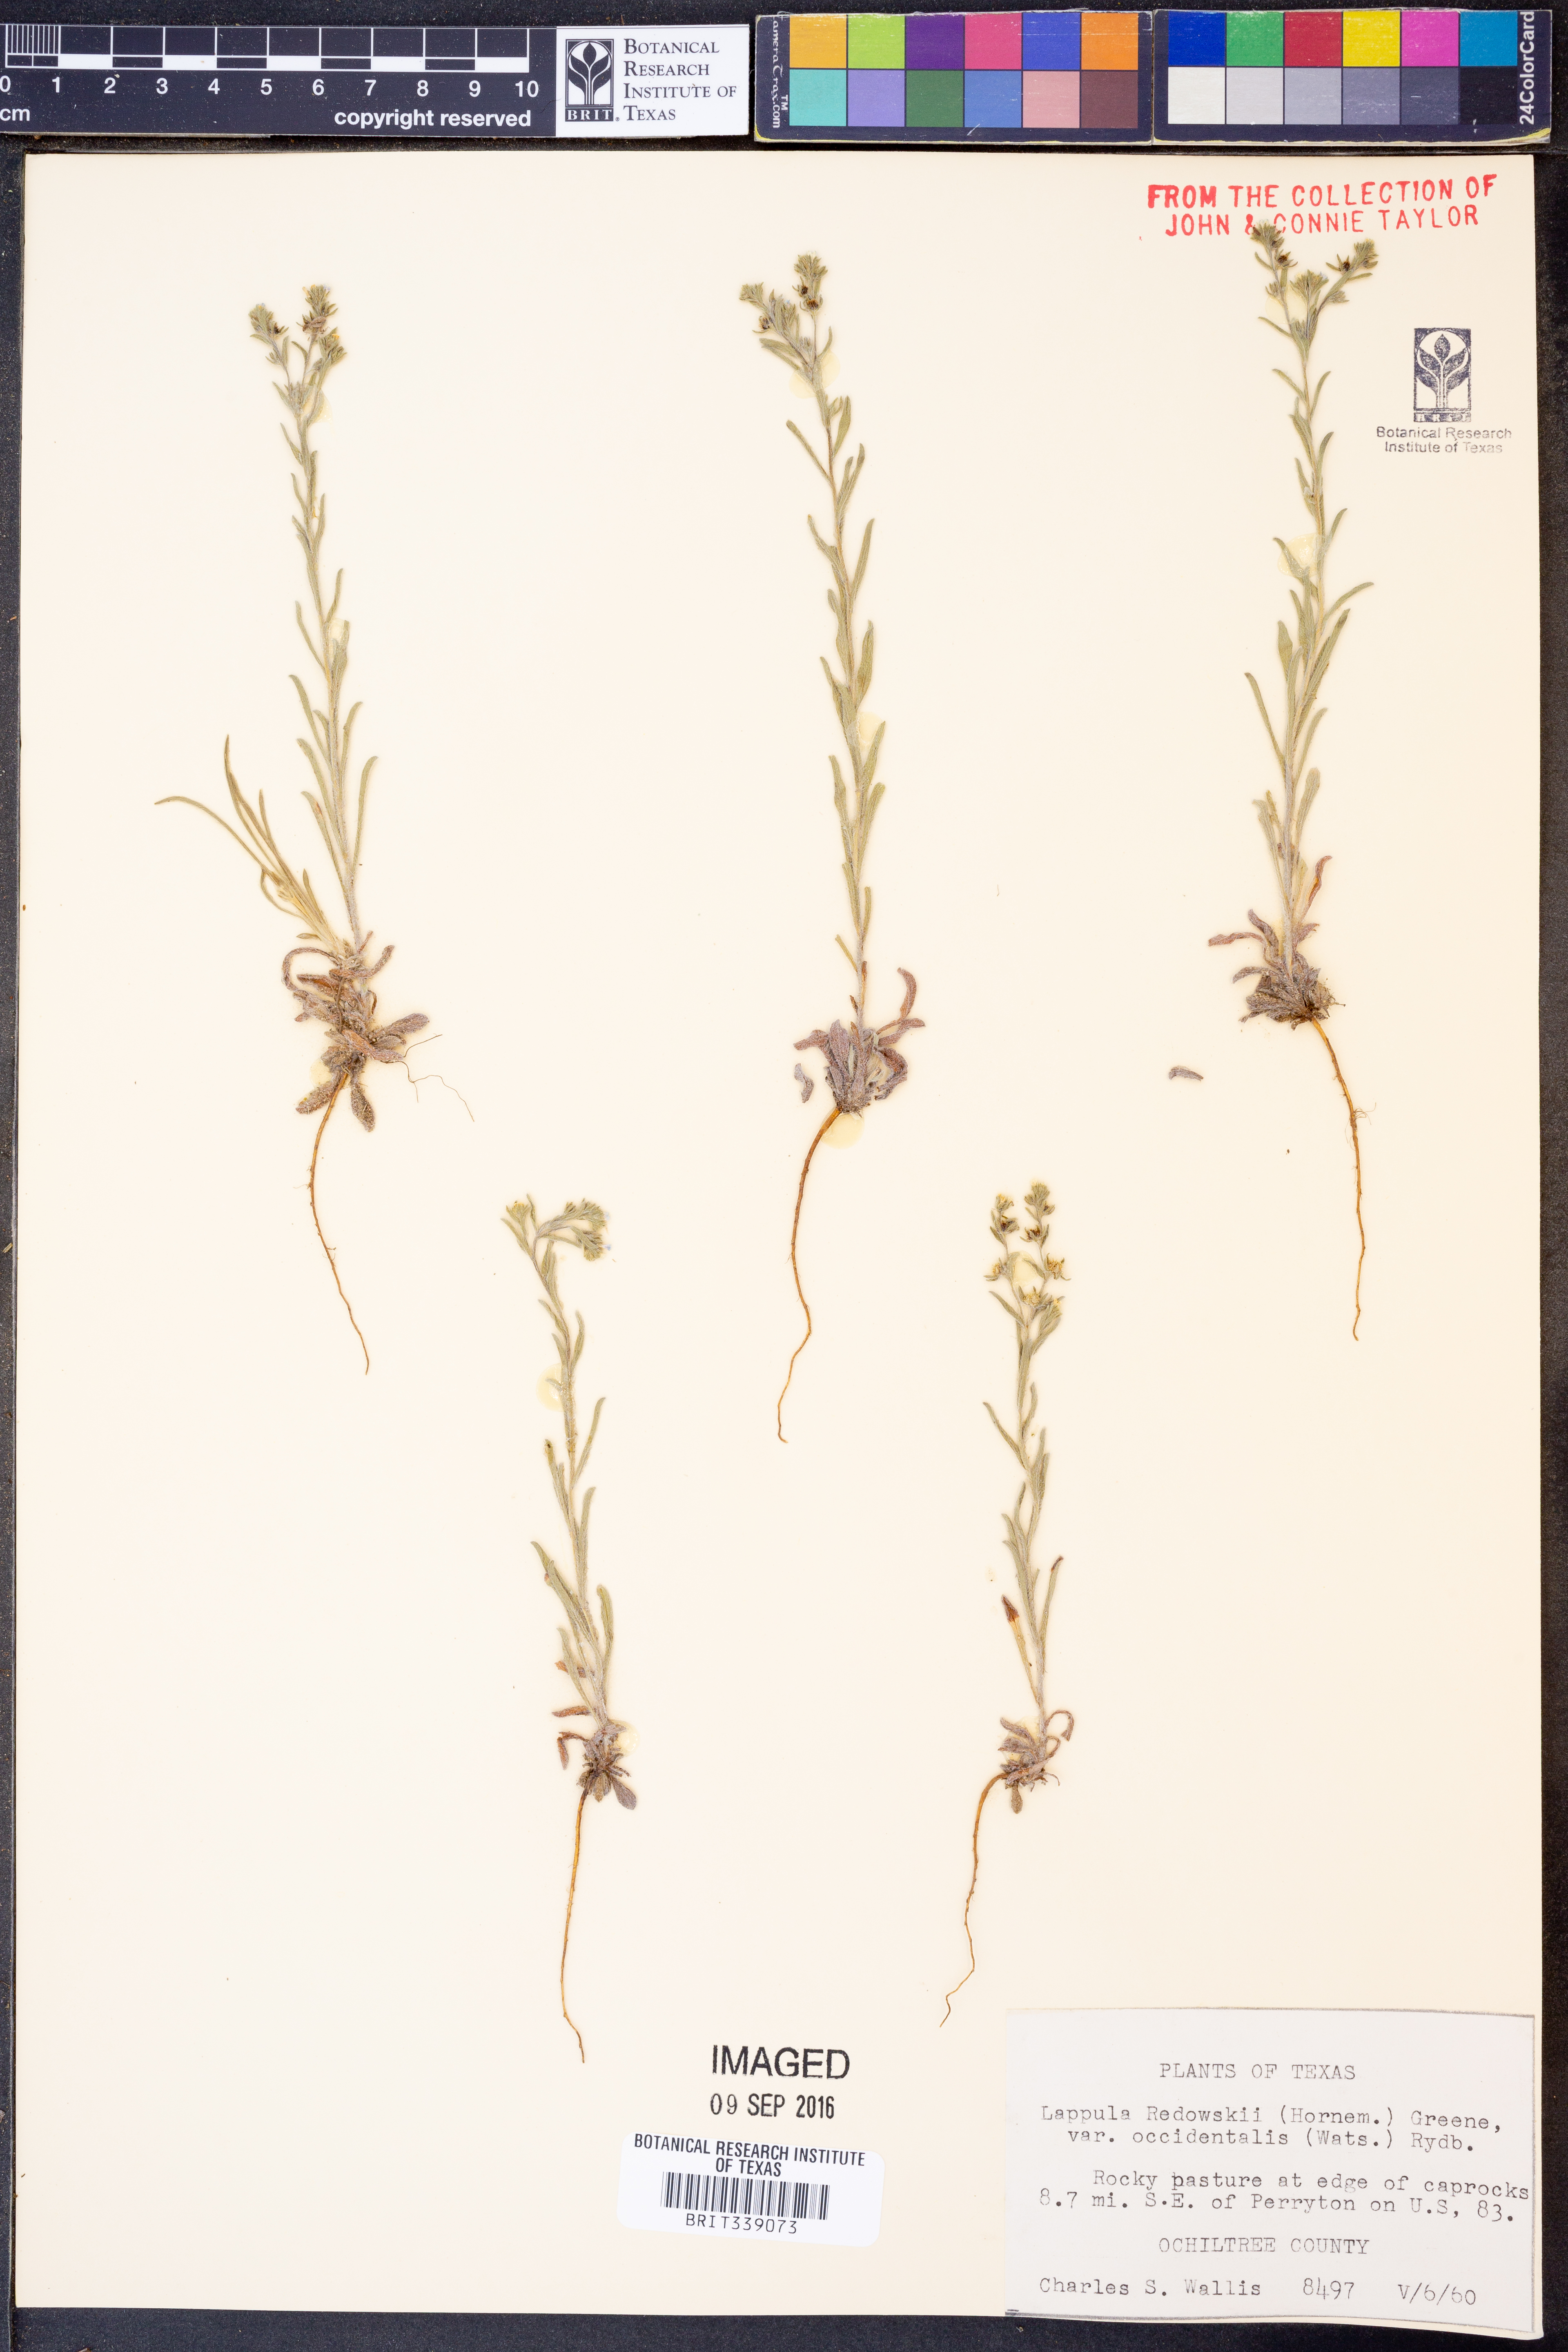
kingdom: Plantae
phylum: Tracheophyta
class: Magnoliopsida
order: Boraginales
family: Boraginaceae
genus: Lappula
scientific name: Lappula occidentalis
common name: Western stickseed
